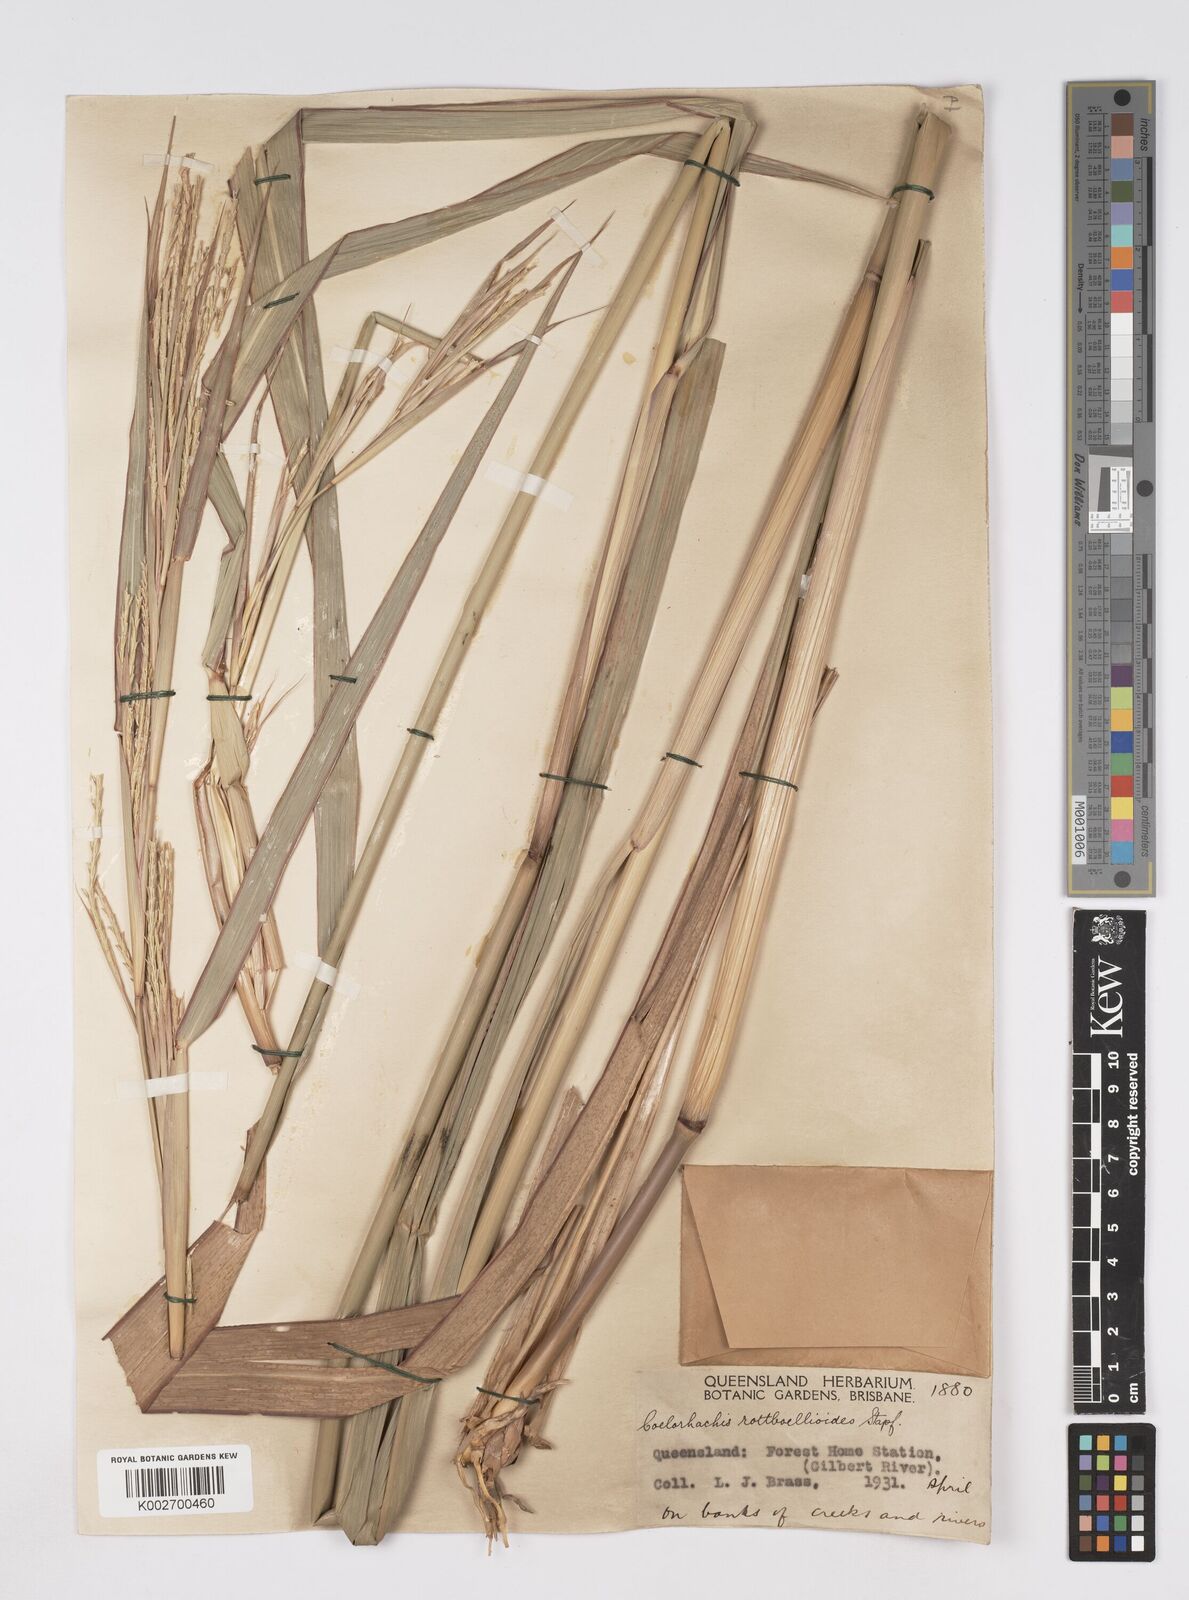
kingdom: Plantae
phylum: Tracheophyta
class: Liliopsida
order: Poales
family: Poaceae
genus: Rottboellia
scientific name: Rottboellia rottboellioides
